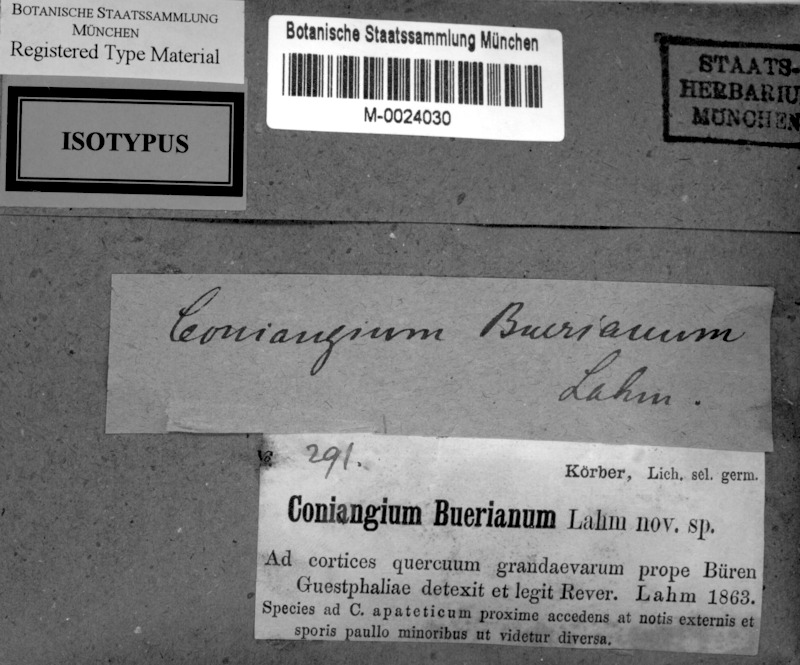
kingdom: Fungi
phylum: Ascomycota
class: Arthoniomycetes
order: Arthoniales
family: Arthoniaceae
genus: Arthonia
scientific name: Arthonia bueriana
